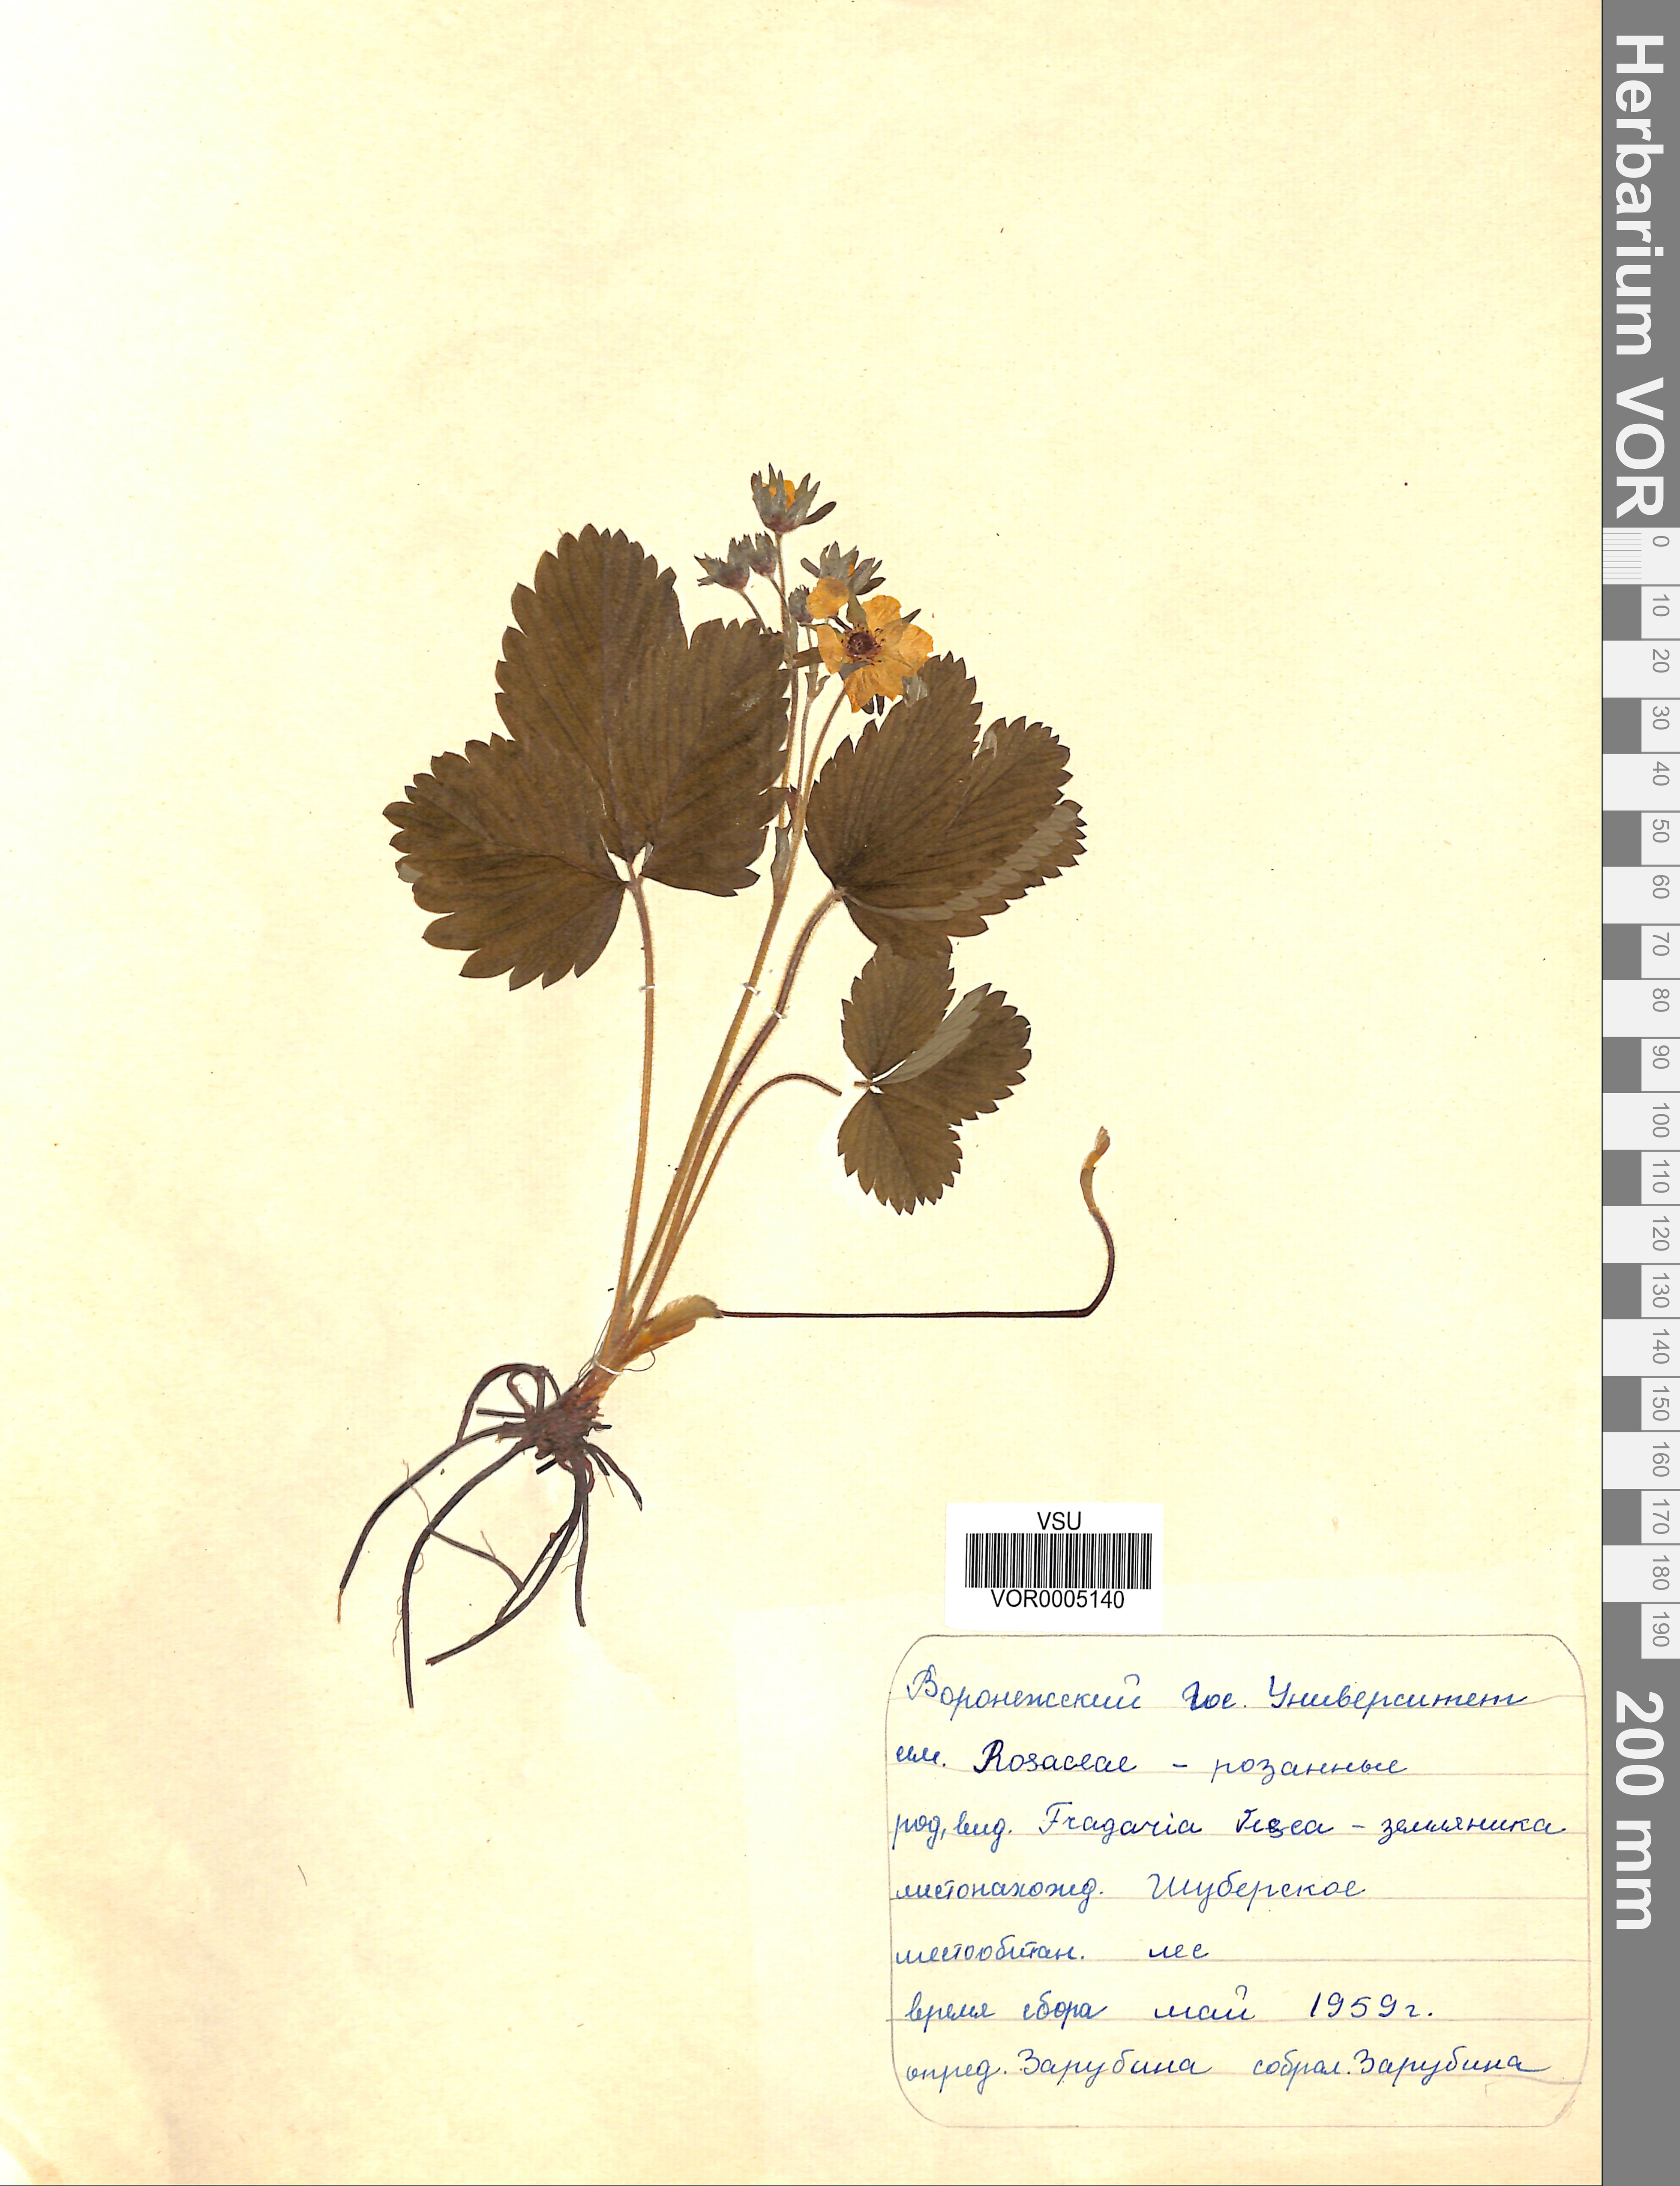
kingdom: Plantae
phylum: Tracheophyta
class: Magnoliopsida
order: Rosales
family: Rosaceae
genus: Fragaria
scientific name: Fragaria vesca
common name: Wild strawberry
